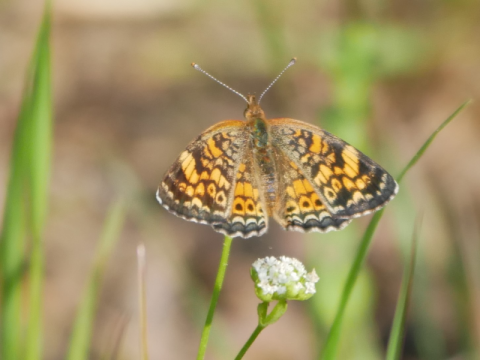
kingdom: Animalia
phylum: Arthropoda
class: Insecta
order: Lepidoptera
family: Nymphalidae
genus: Phyciodes
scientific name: Phyciodes tharos
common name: Pearl Crescent
